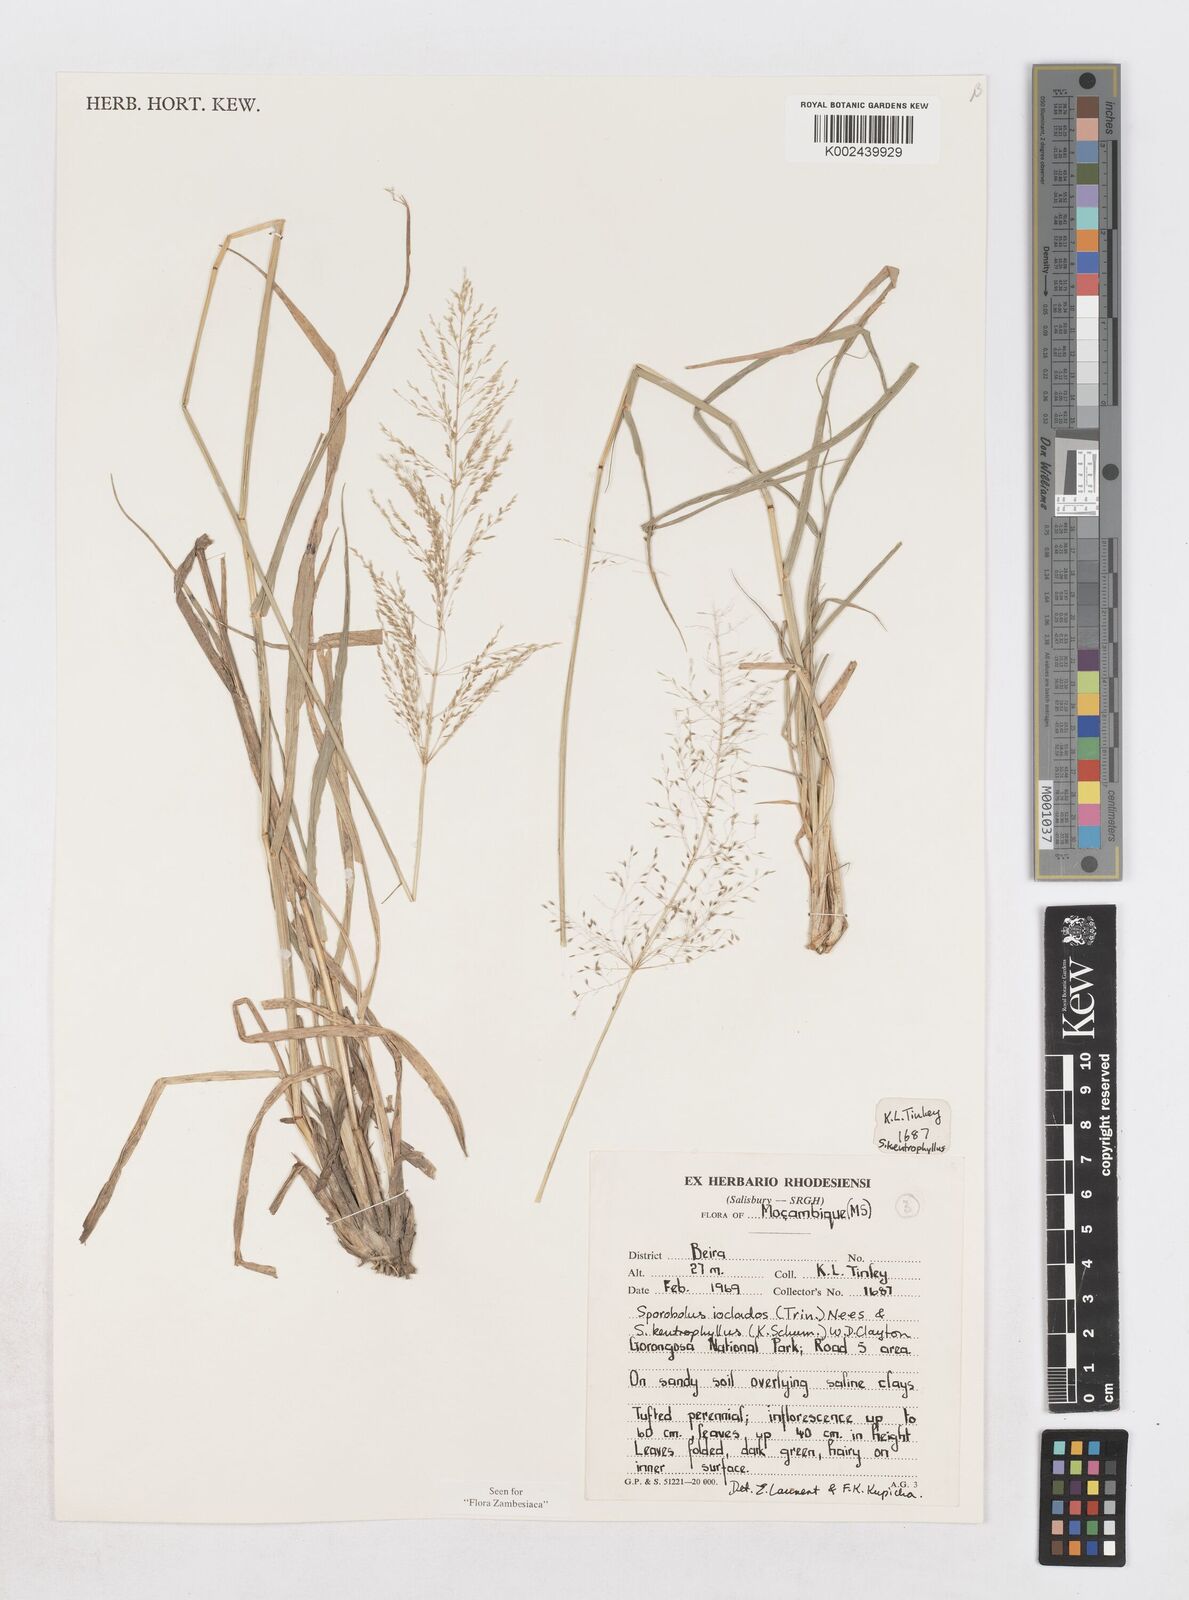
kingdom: Plantae
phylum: Tracheophyta
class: Liliopsida
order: Poales
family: Poaceae
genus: Sporobolus
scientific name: Sporobolus ioclados
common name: Pan dropseed
